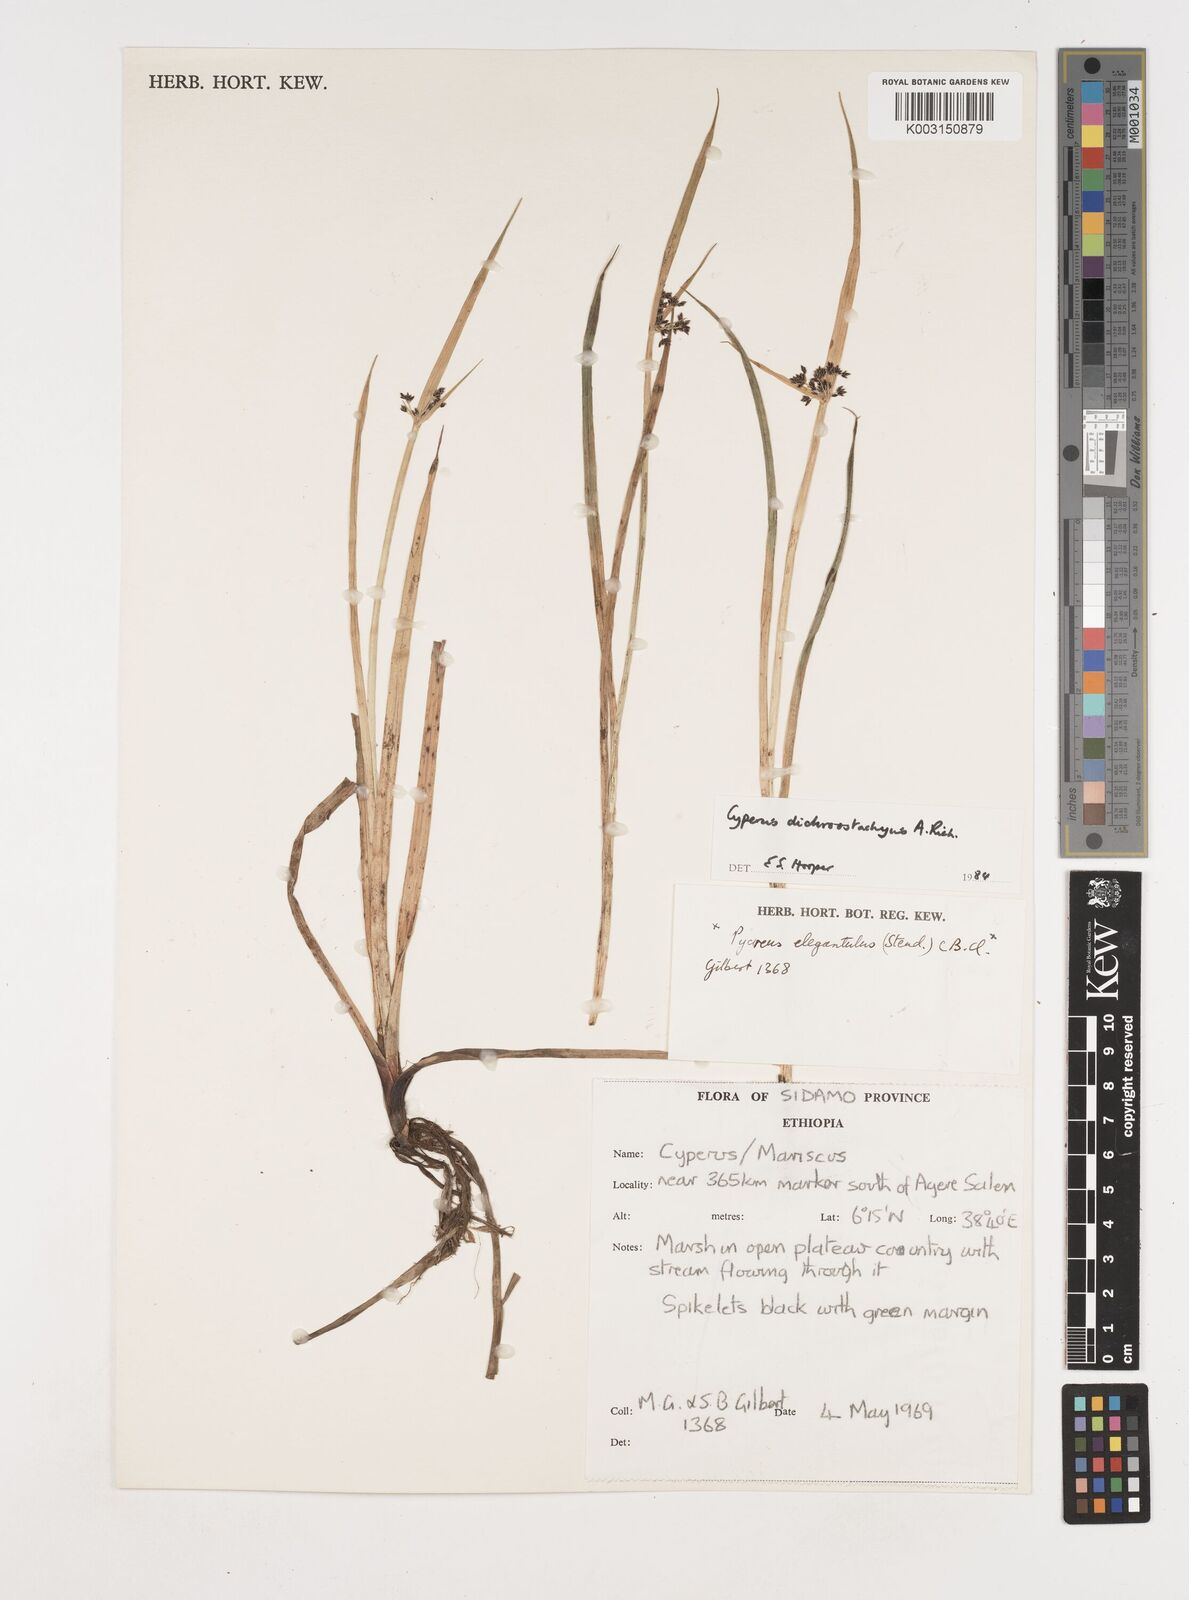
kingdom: Plantae
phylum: Tracheophyta
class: Liliopsida
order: Poales
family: Cyperaceae
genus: Cyperus
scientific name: Cyperus dichrostachyus
